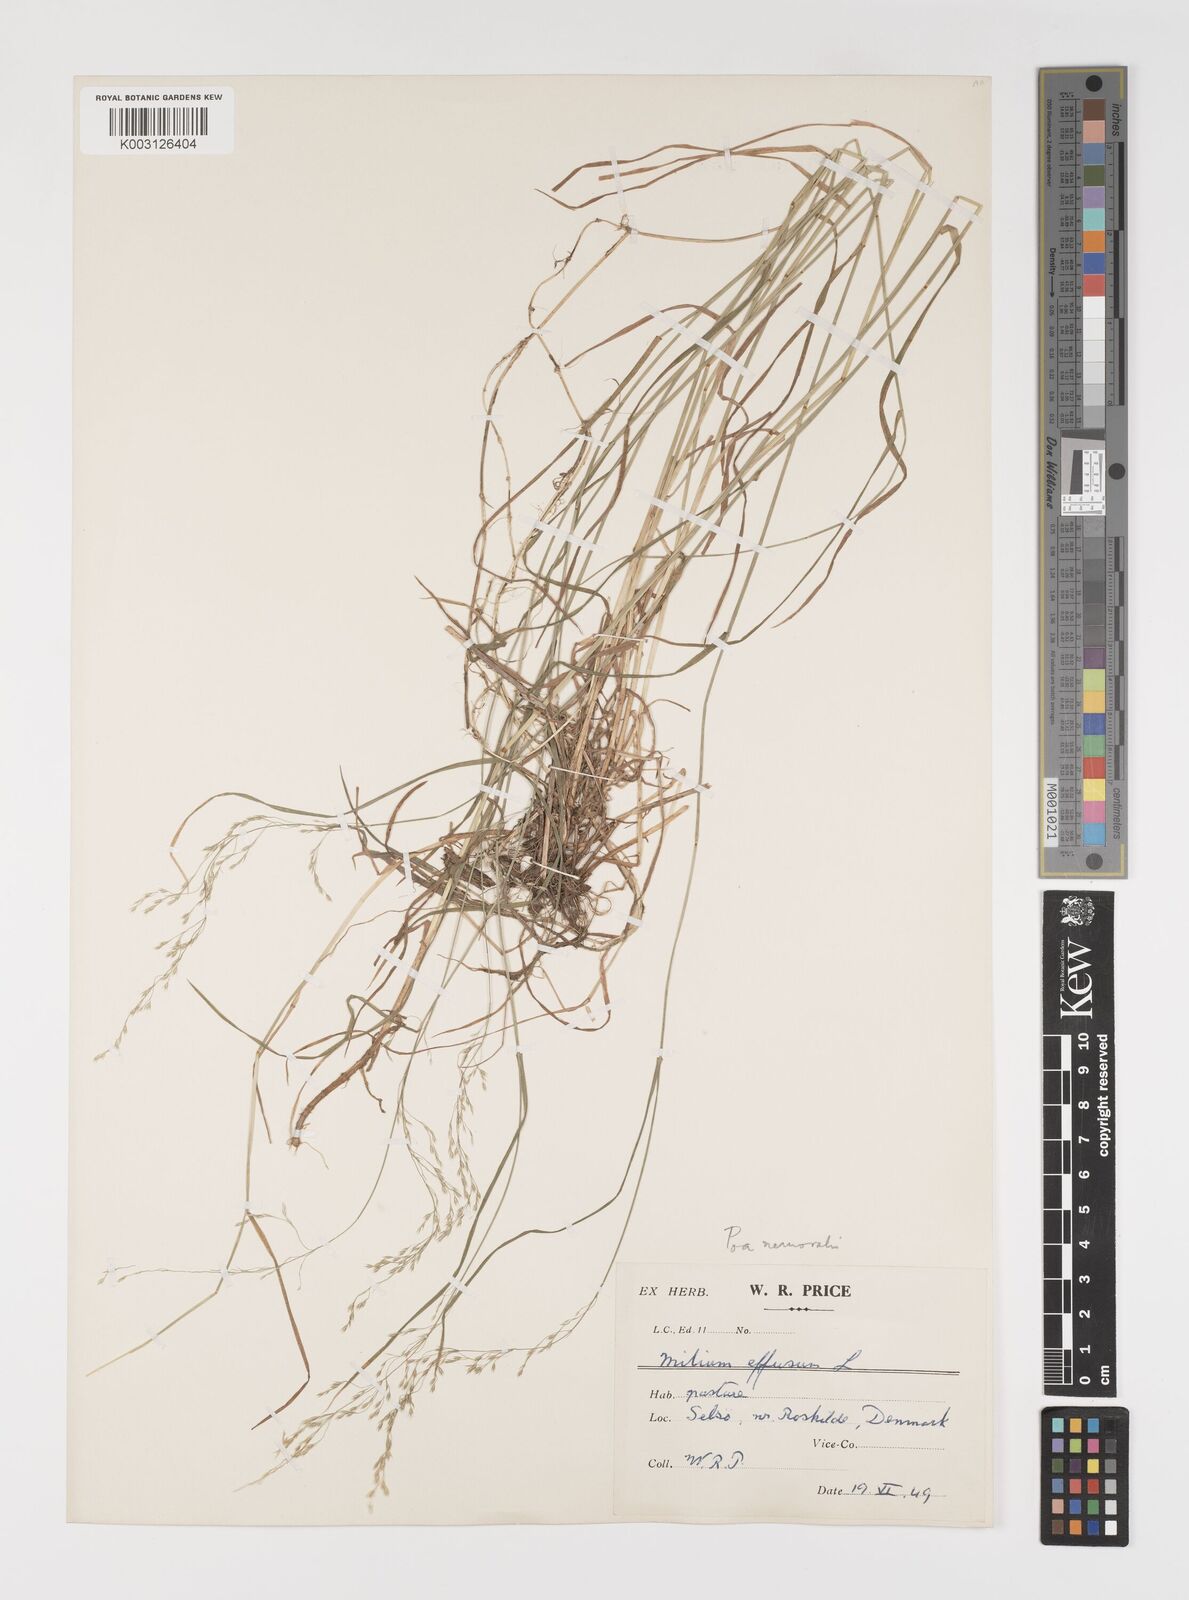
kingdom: Plantae
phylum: Tracheophyta
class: Liliopsida
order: Poales
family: Poaceae
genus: Poa
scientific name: Poa nemoralis
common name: Wood bluegrass
